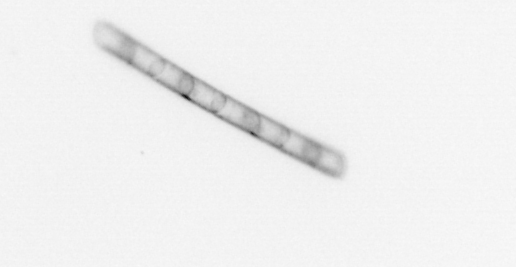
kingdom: Chromista
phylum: Ochrophyta
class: Bacillariophyceae
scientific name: Bacillariophyceae
